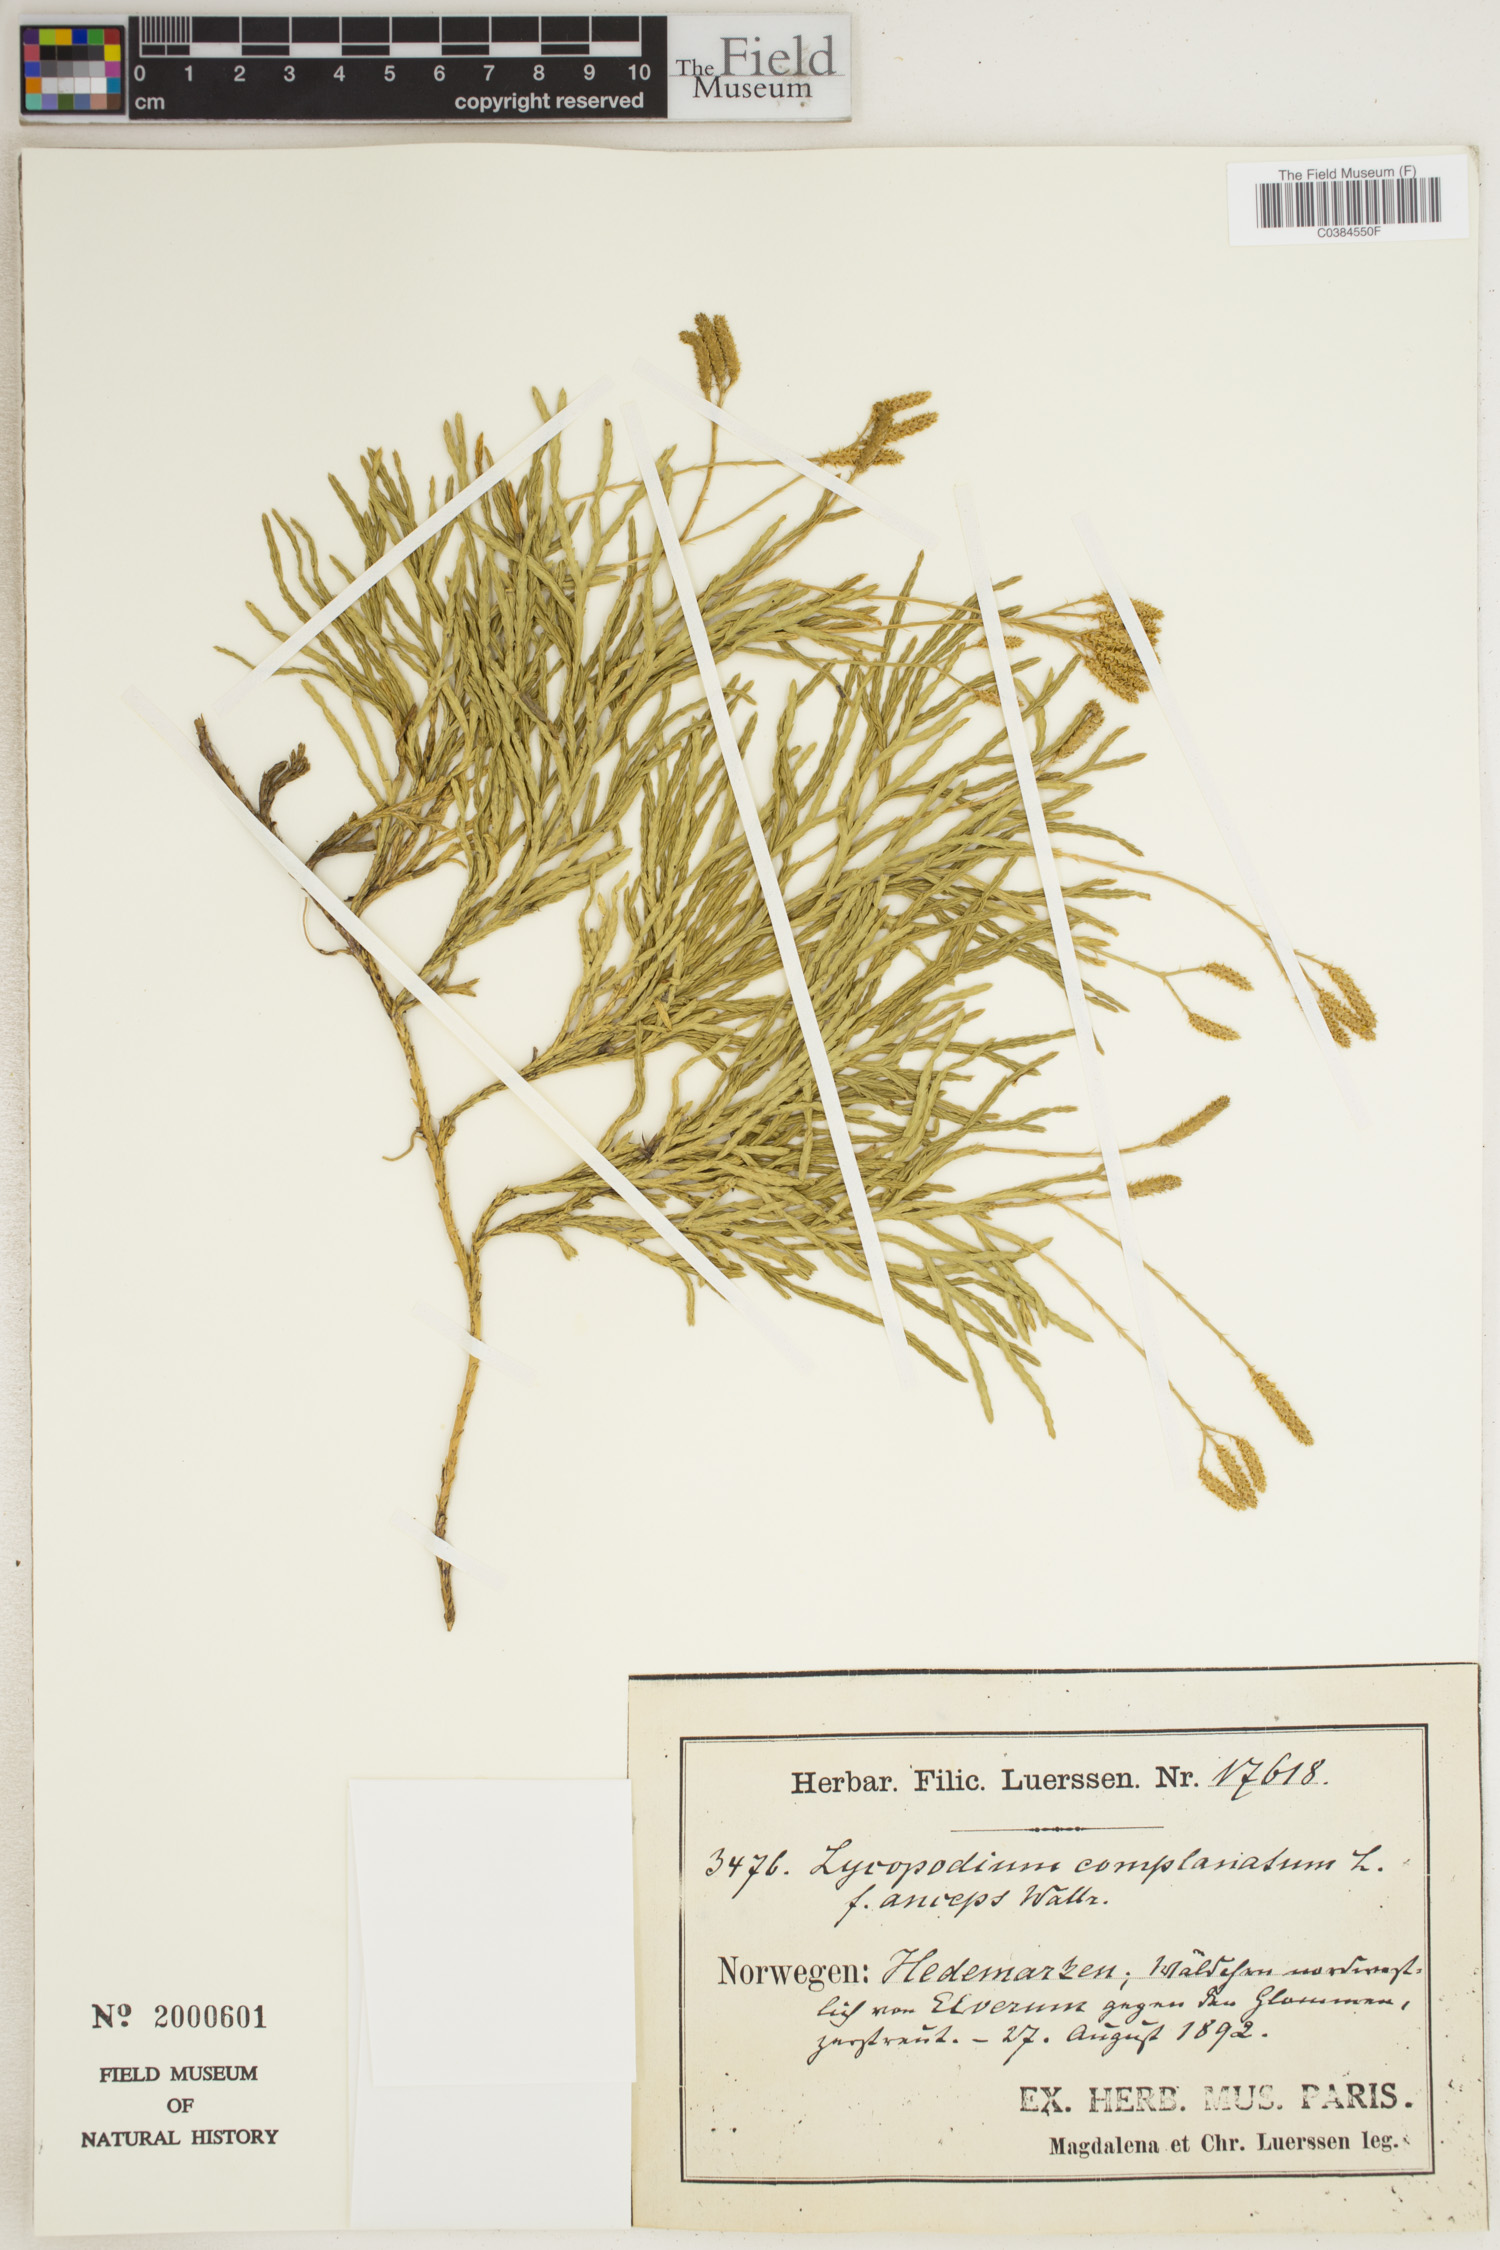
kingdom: Plantae
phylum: Tracheophyta
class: Lycopodiopsida
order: Lycopodiales
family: Lycopodiaceae
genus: Diphasiastrum
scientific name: Diphasiastrum complanatum
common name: Northern running-pine
